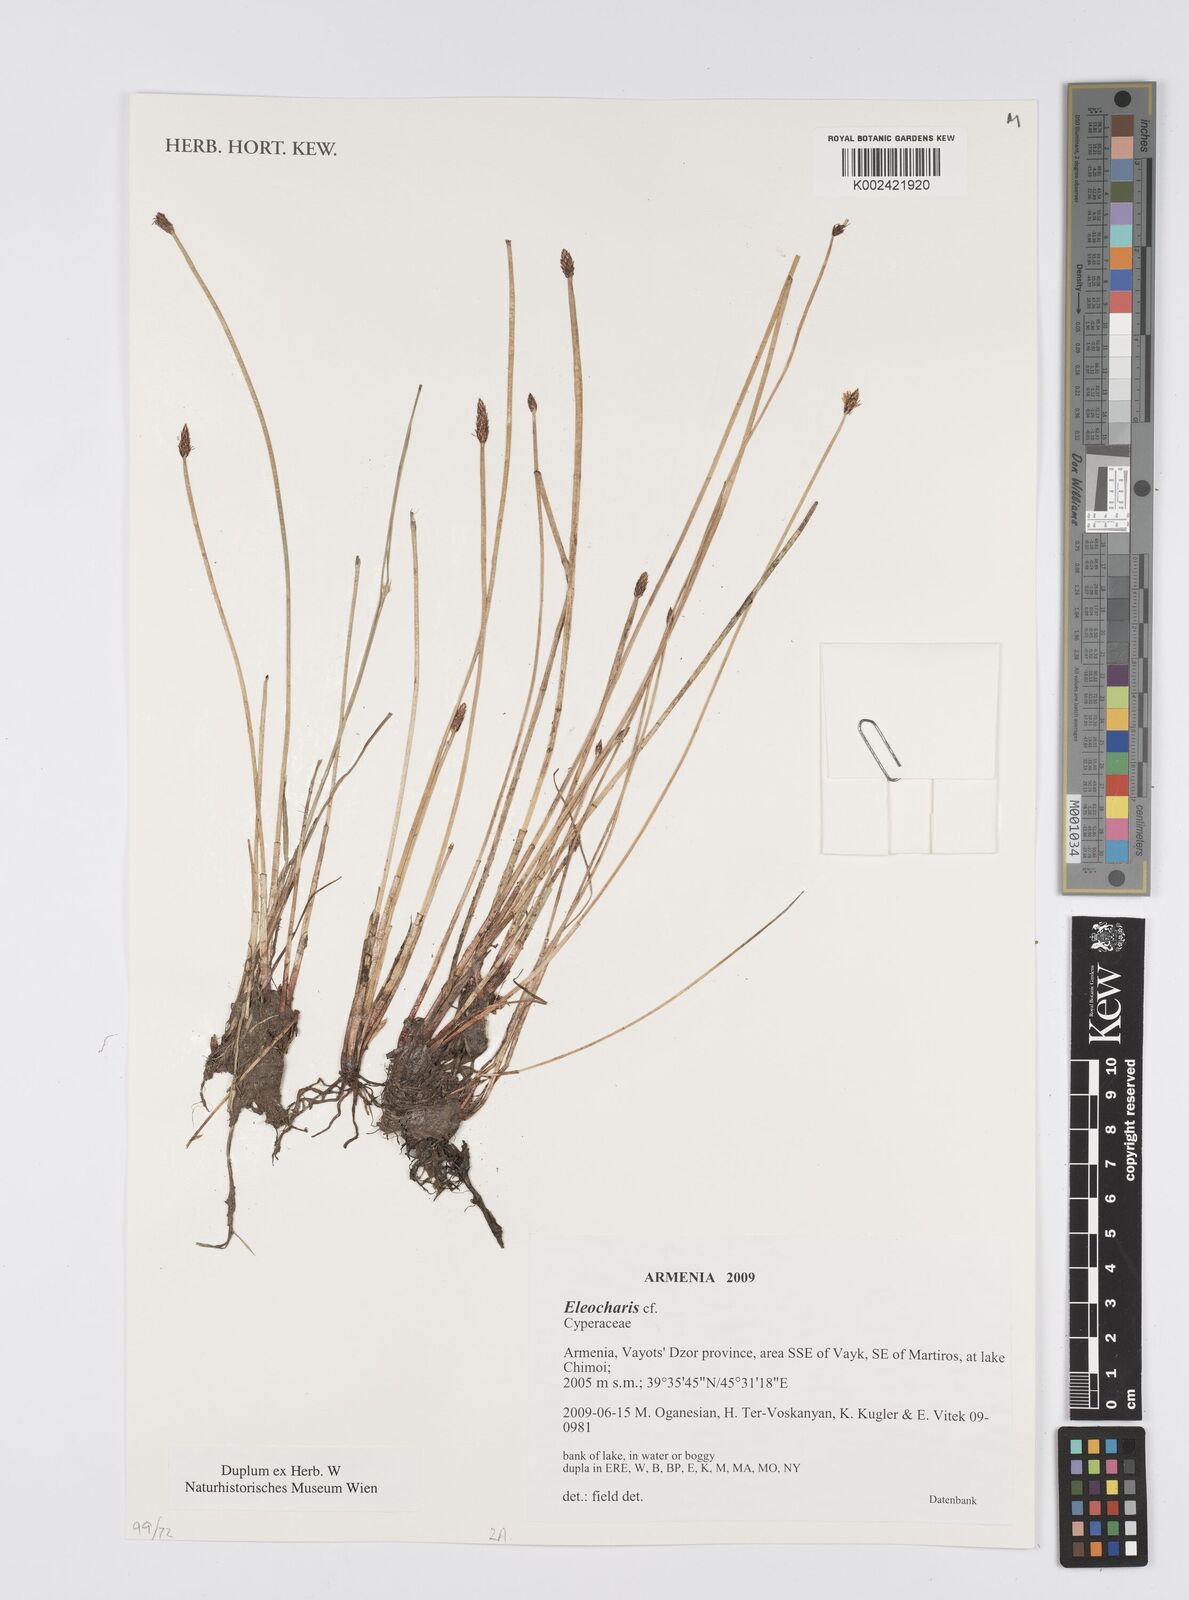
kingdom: Plantae
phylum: Tracheophyta
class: Liliopsida
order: Poales
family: Cyperaceae
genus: Eleocharis
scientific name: Eleocharis
